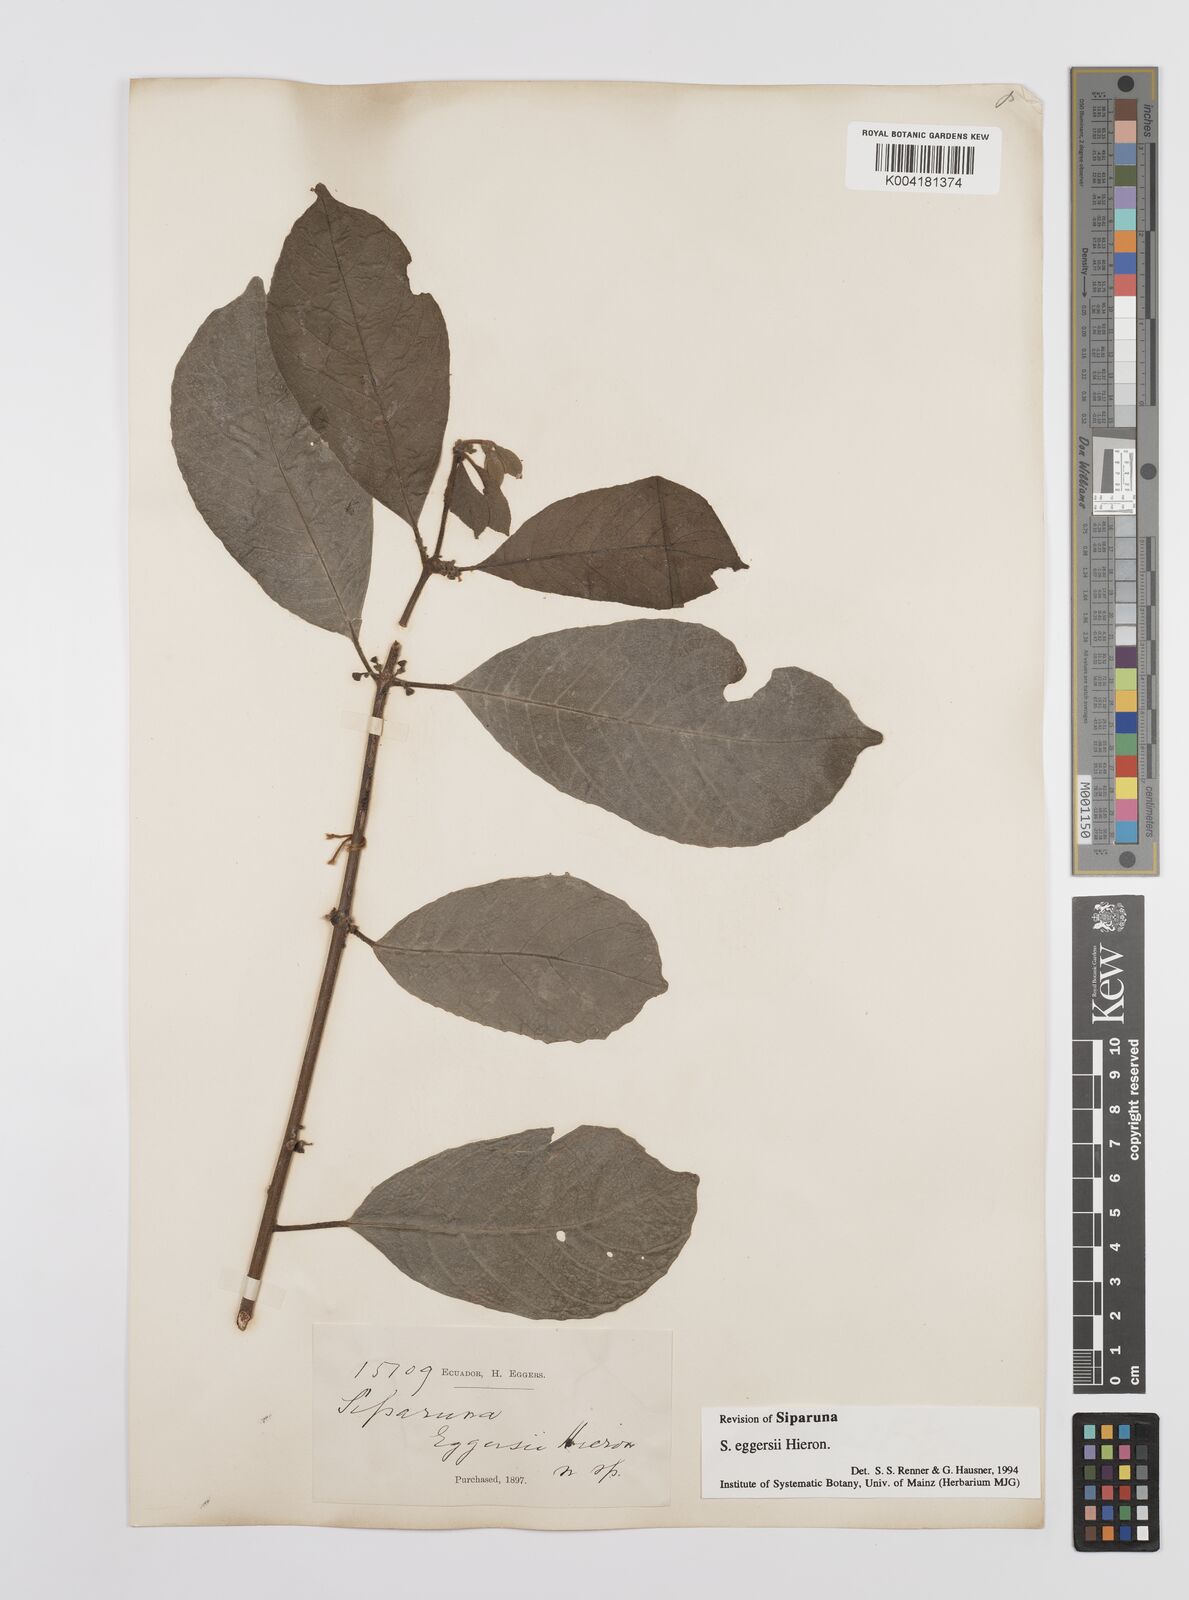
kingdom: Plantae
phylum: Tracheophyta
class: Magnoliopsida
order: Laurales
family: Siparunaceae
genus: Siparuna
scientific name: Siparuna eggersii
